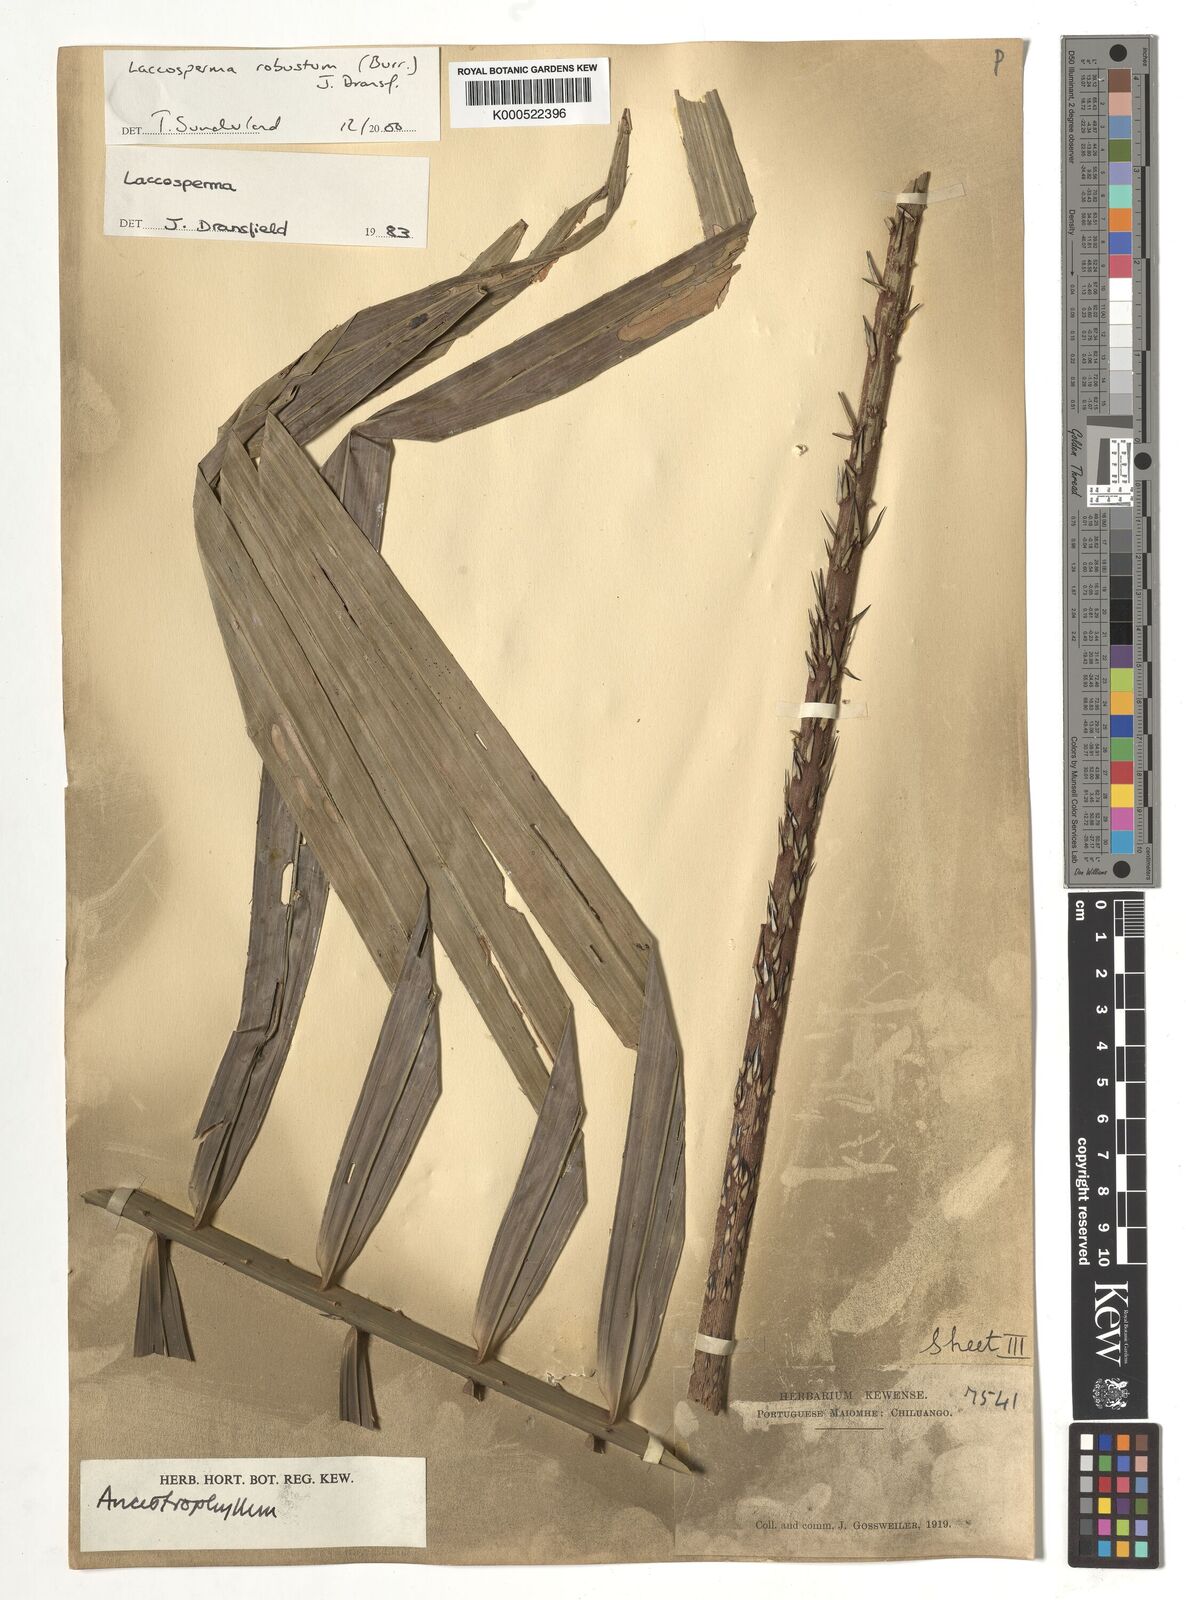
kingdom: Plantae
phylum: Tracheophyta
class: Liliopsida
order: Arecales
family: Arecaceae
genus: Laccosperma
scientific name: Laccosperma robustum
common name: Rattan
